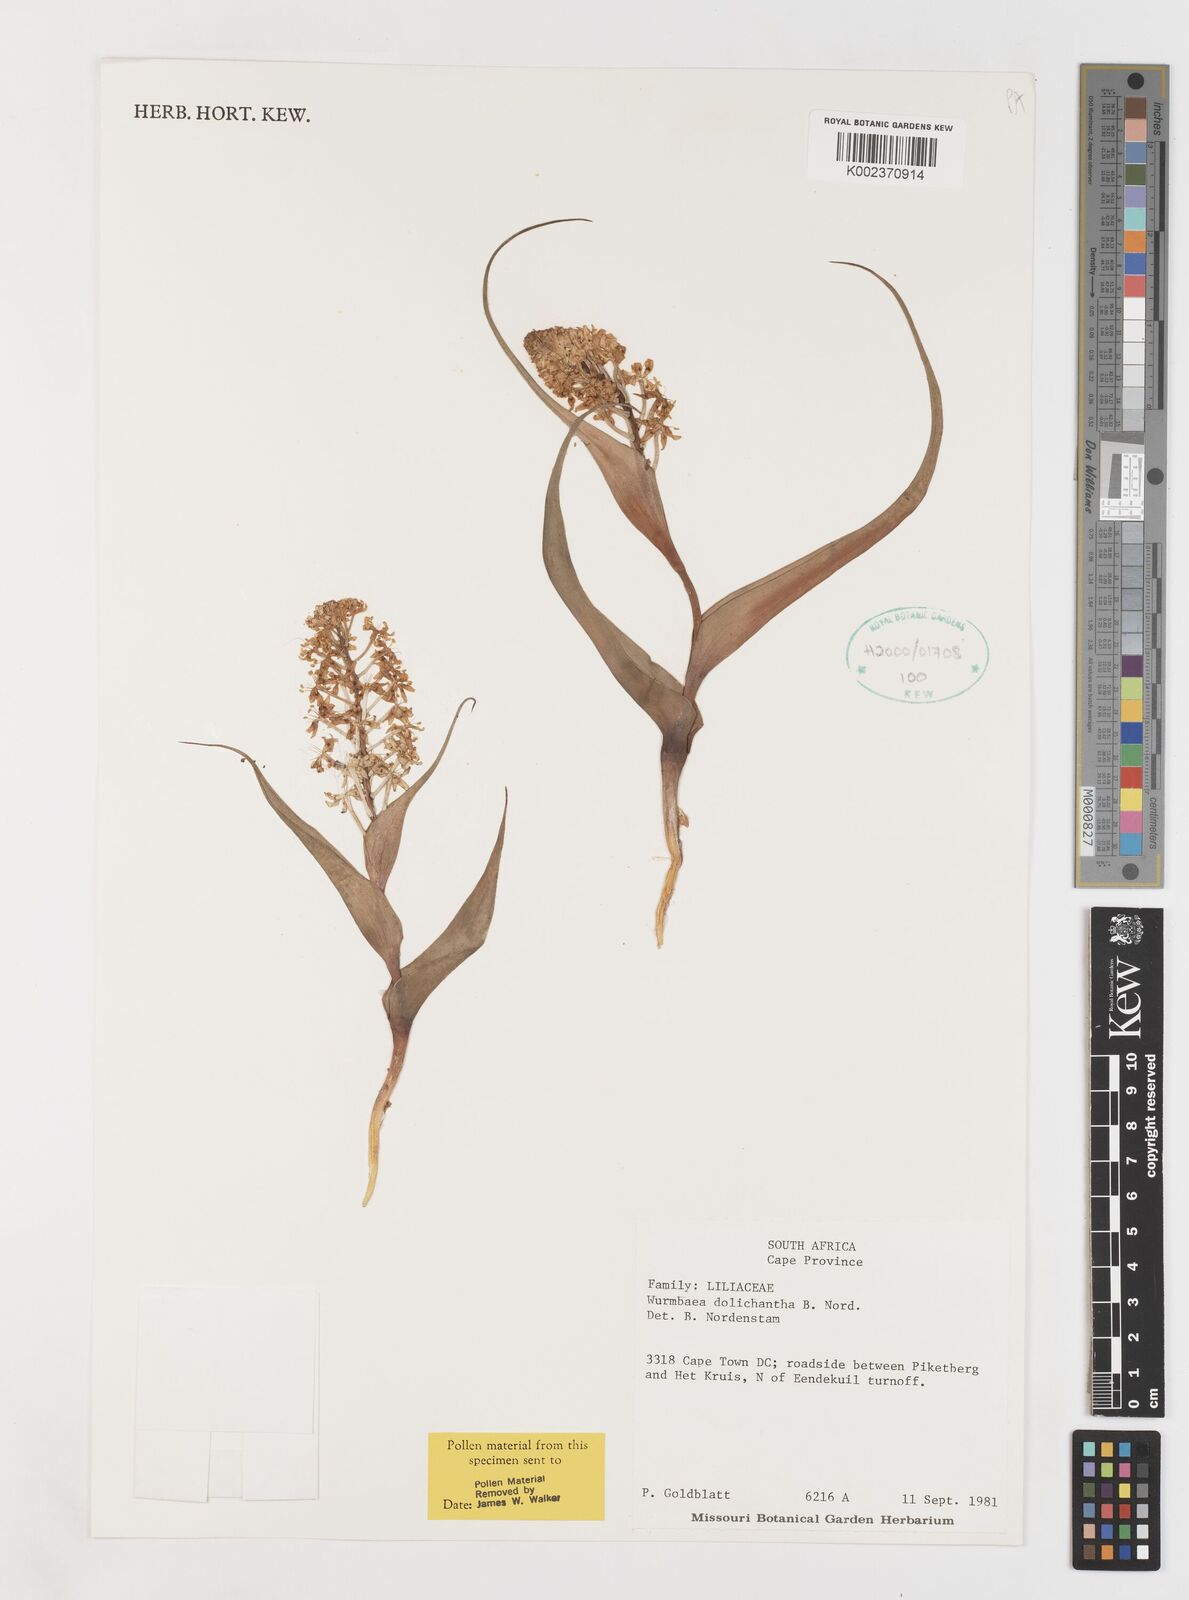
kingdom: Plantae
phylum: Tracheophyta
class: Liliopsida
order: Liliales
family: Colchicaceae
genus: Wurmbea
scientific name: Wurmbea dolichantha
